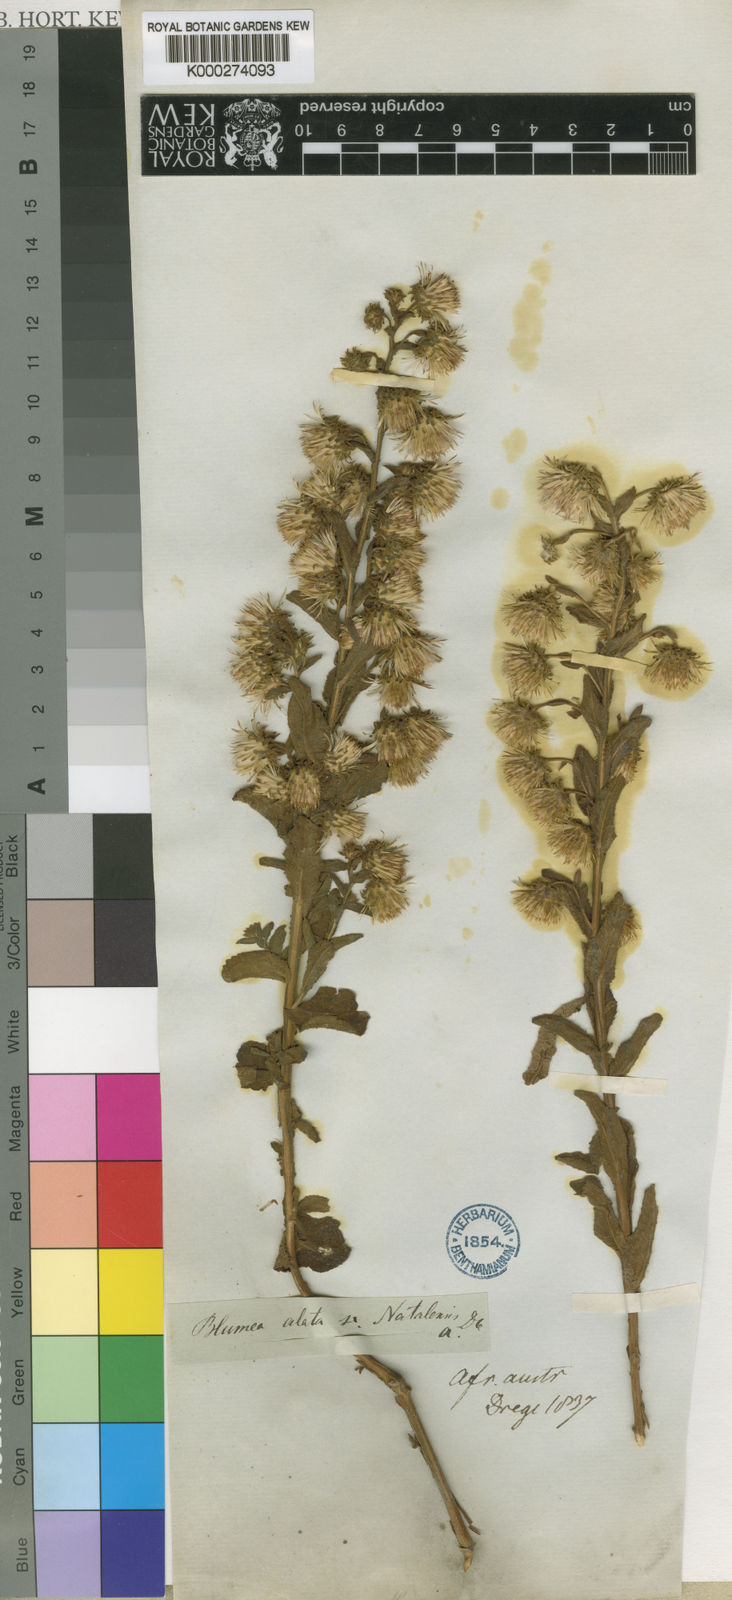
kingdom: Plantae
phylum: Tracheophyta
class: Magnoliopsida
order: Asterales
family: Asteraceae
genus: Laggera
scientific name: Laggera crispata
